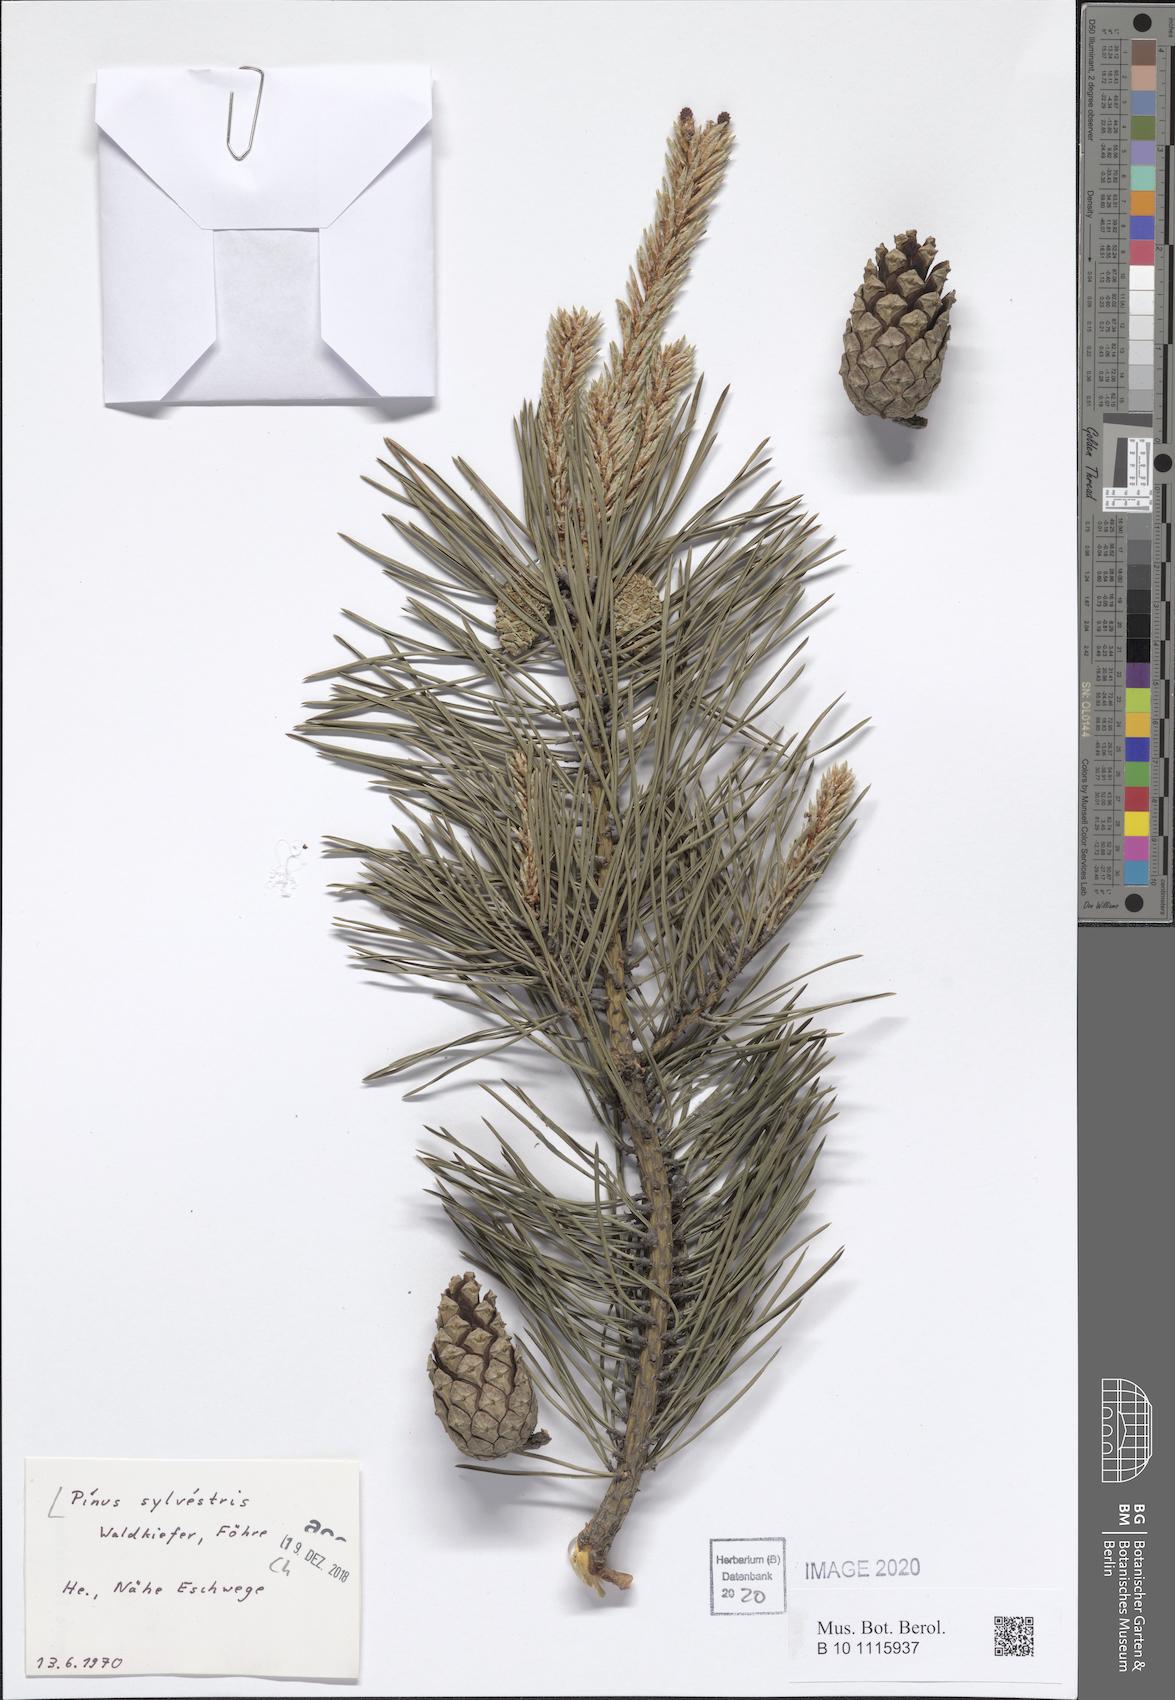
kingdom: Plantae
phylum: Tracheophyta
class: Pinopsida
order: Pinales
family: Pinaceae
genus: Pinus
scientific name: Pinus sylvestris
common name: Scots pine
